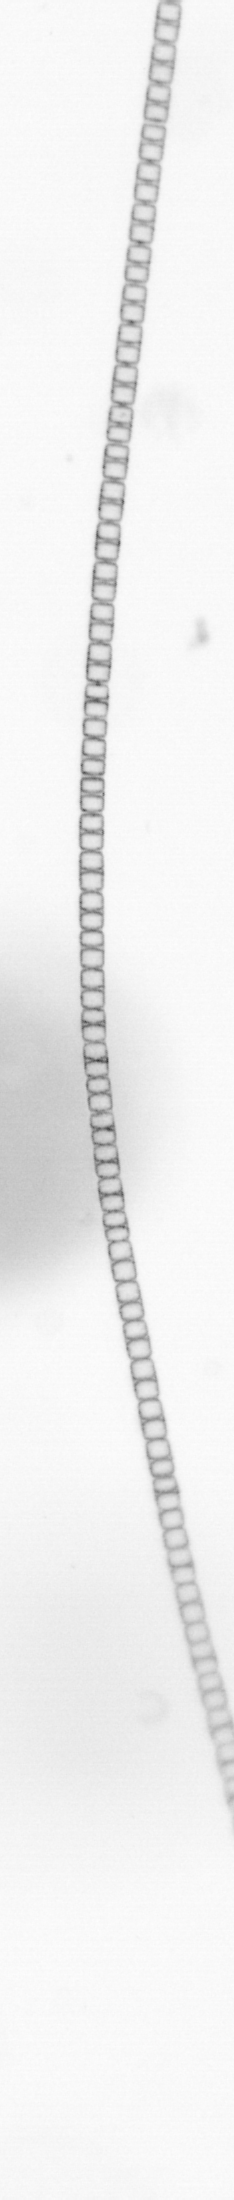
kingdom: Chromista
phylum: Ochrophyta
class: Bacillariophyceae
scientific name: Bacillariophyceae
